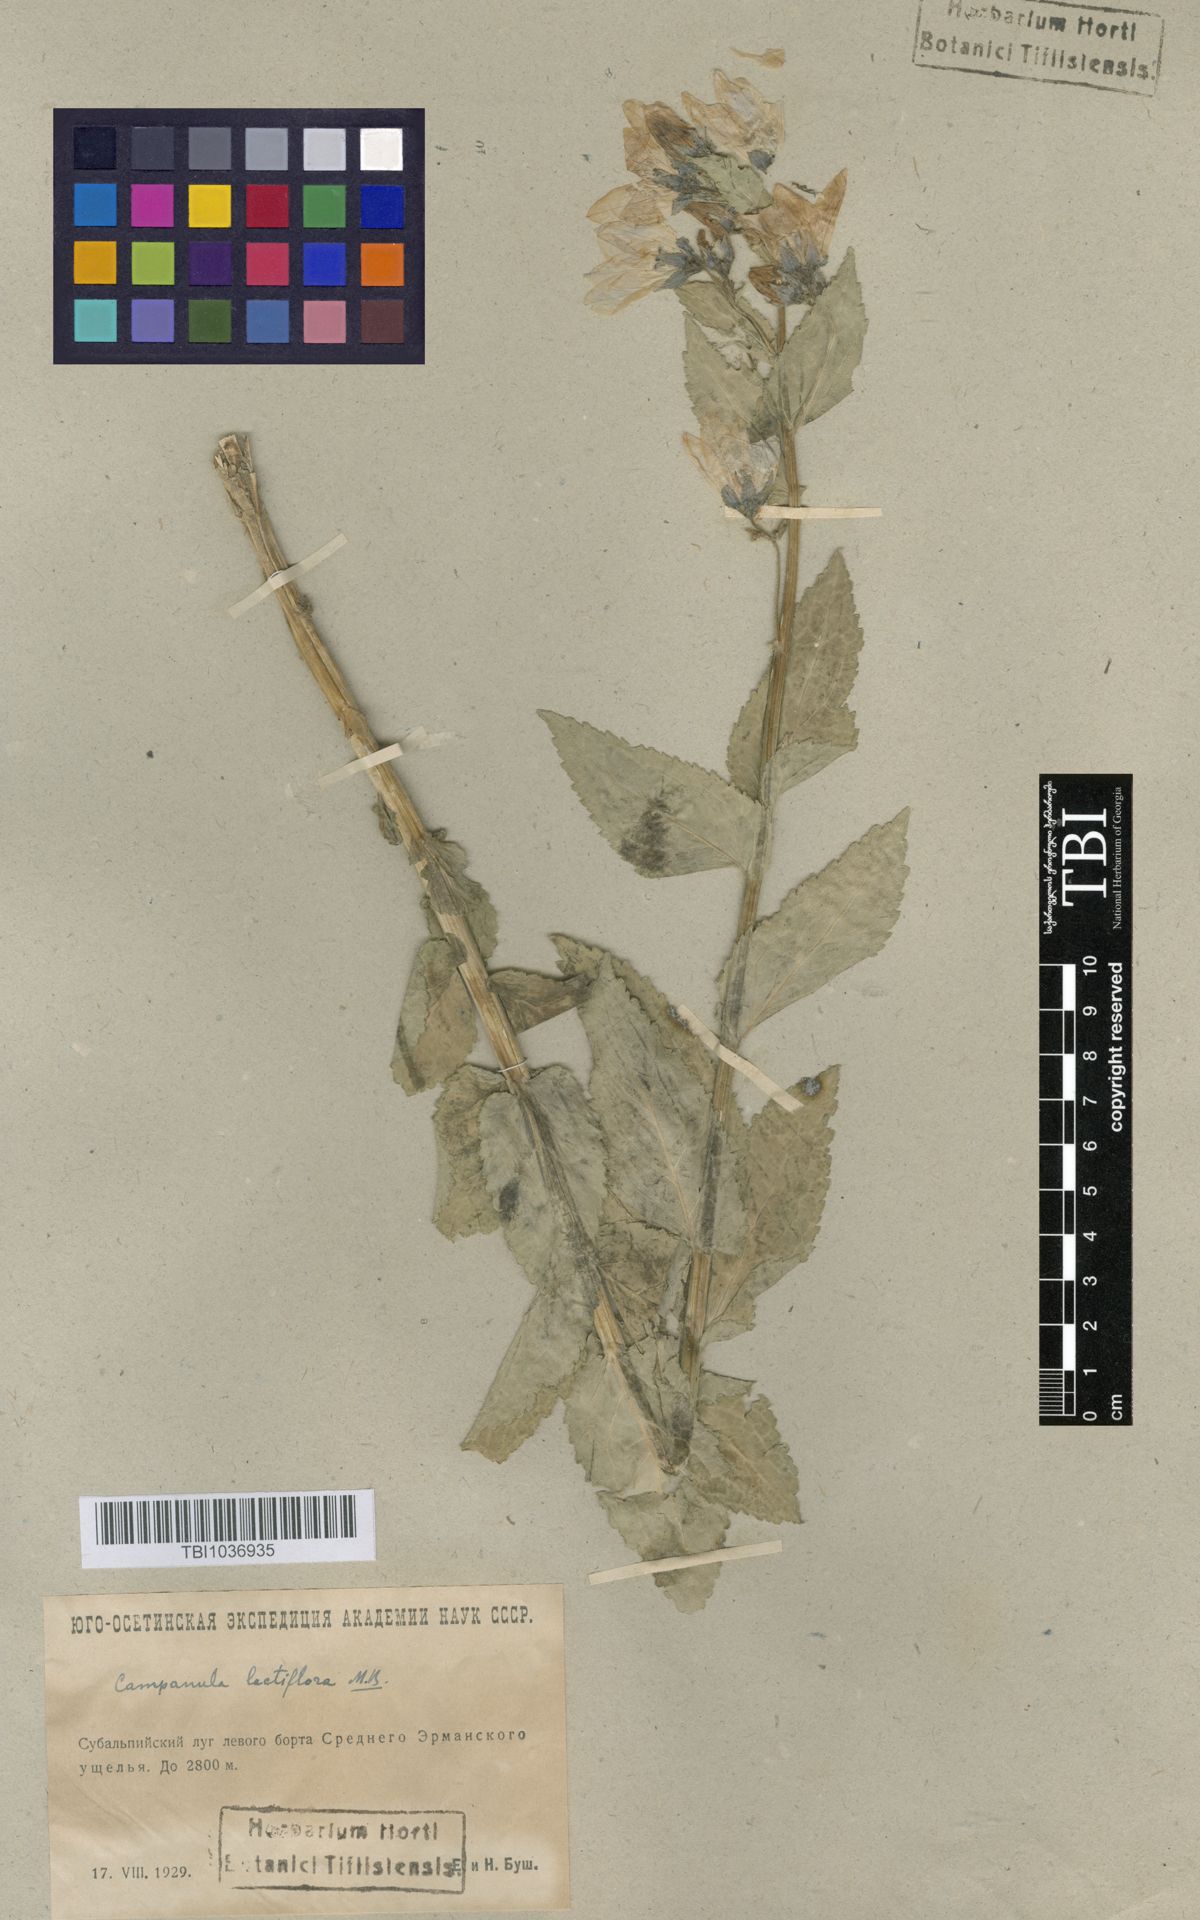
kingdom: Plantae
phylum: Tracheophyta
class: Magnoliopsida
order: Asterales
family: Campanulaceae
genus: Campanula
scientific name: Campanula lactiflora
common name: Milky bellflower
